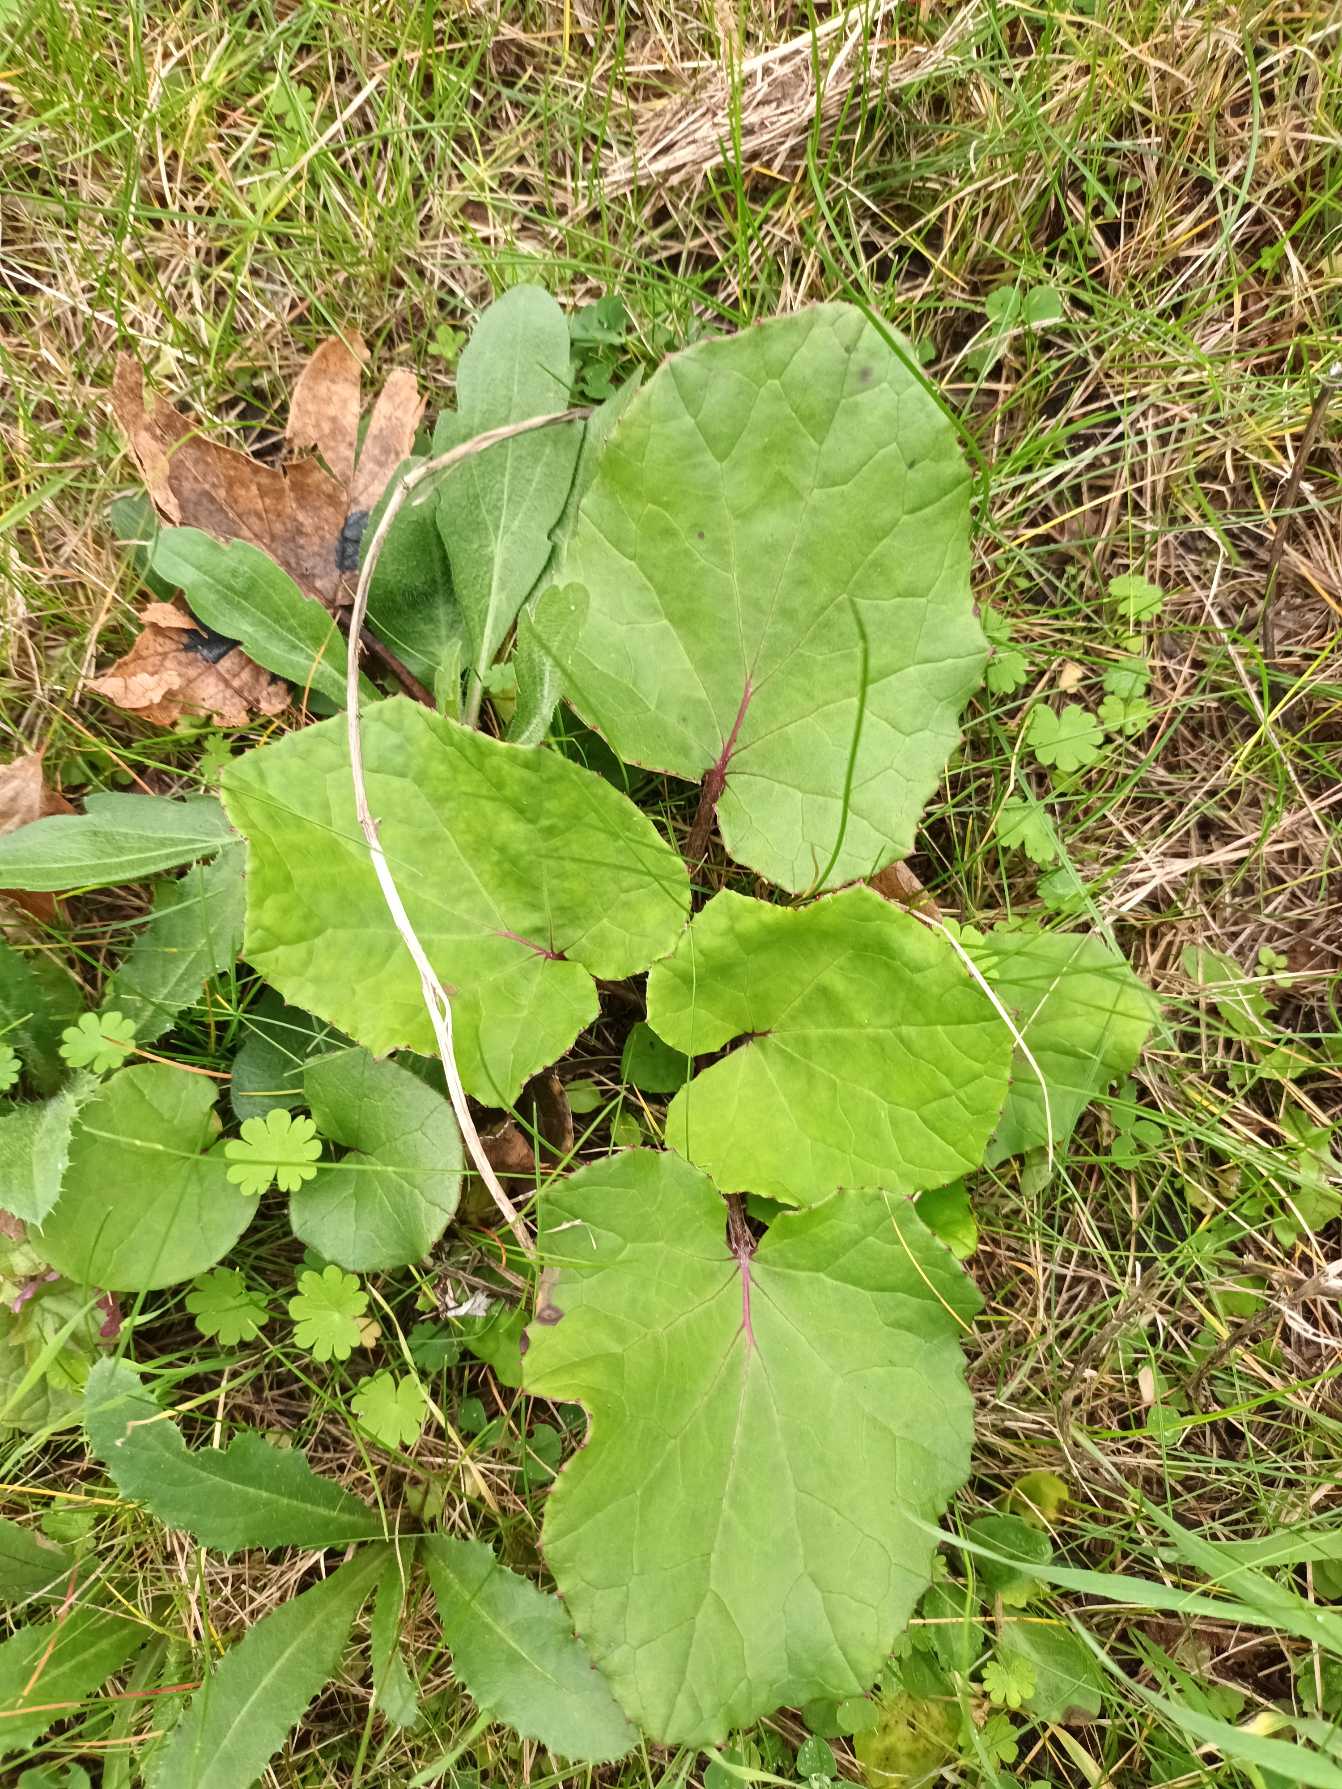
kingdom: Plantae
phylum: Tracheophyta
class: Magnoliopsida
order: Asterales
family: Asteraceae
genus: Tussilago
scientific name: Tussilago farfara
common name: Følfod
